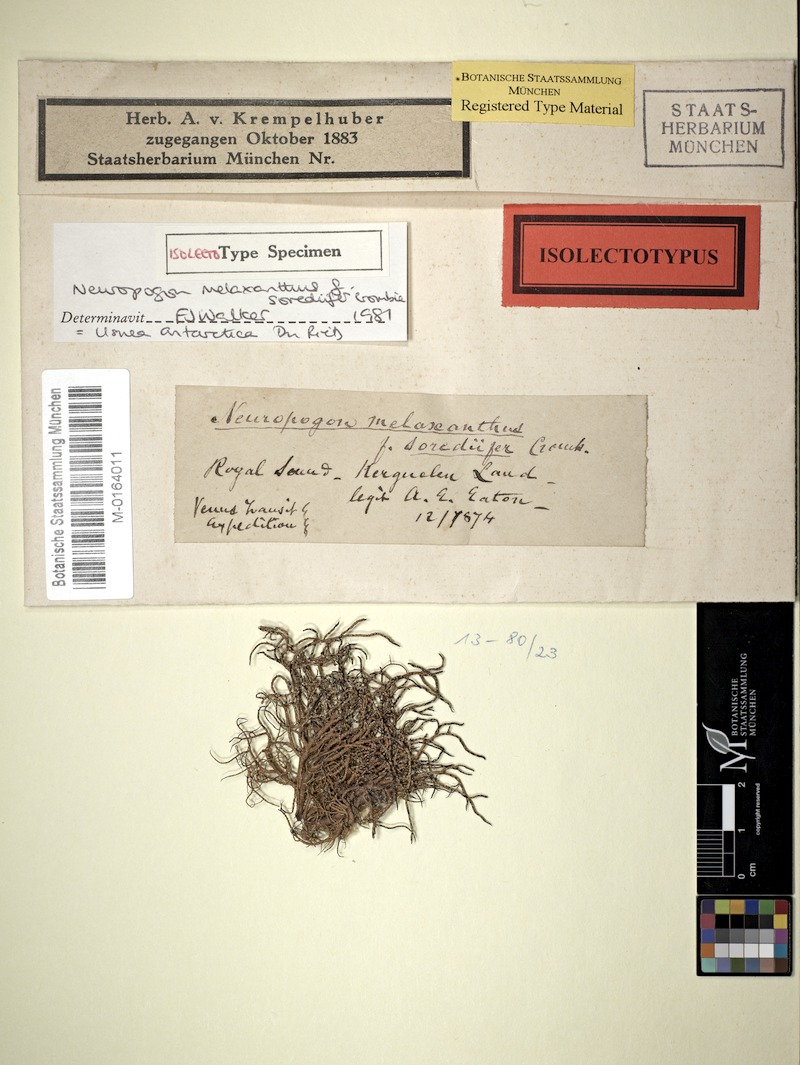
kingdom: Fungi
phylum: Ascomycota
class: Lecanoromycetes
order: Lecanorales
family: Parmeliaceae
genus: Usnea
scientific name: Usnea antarctica
